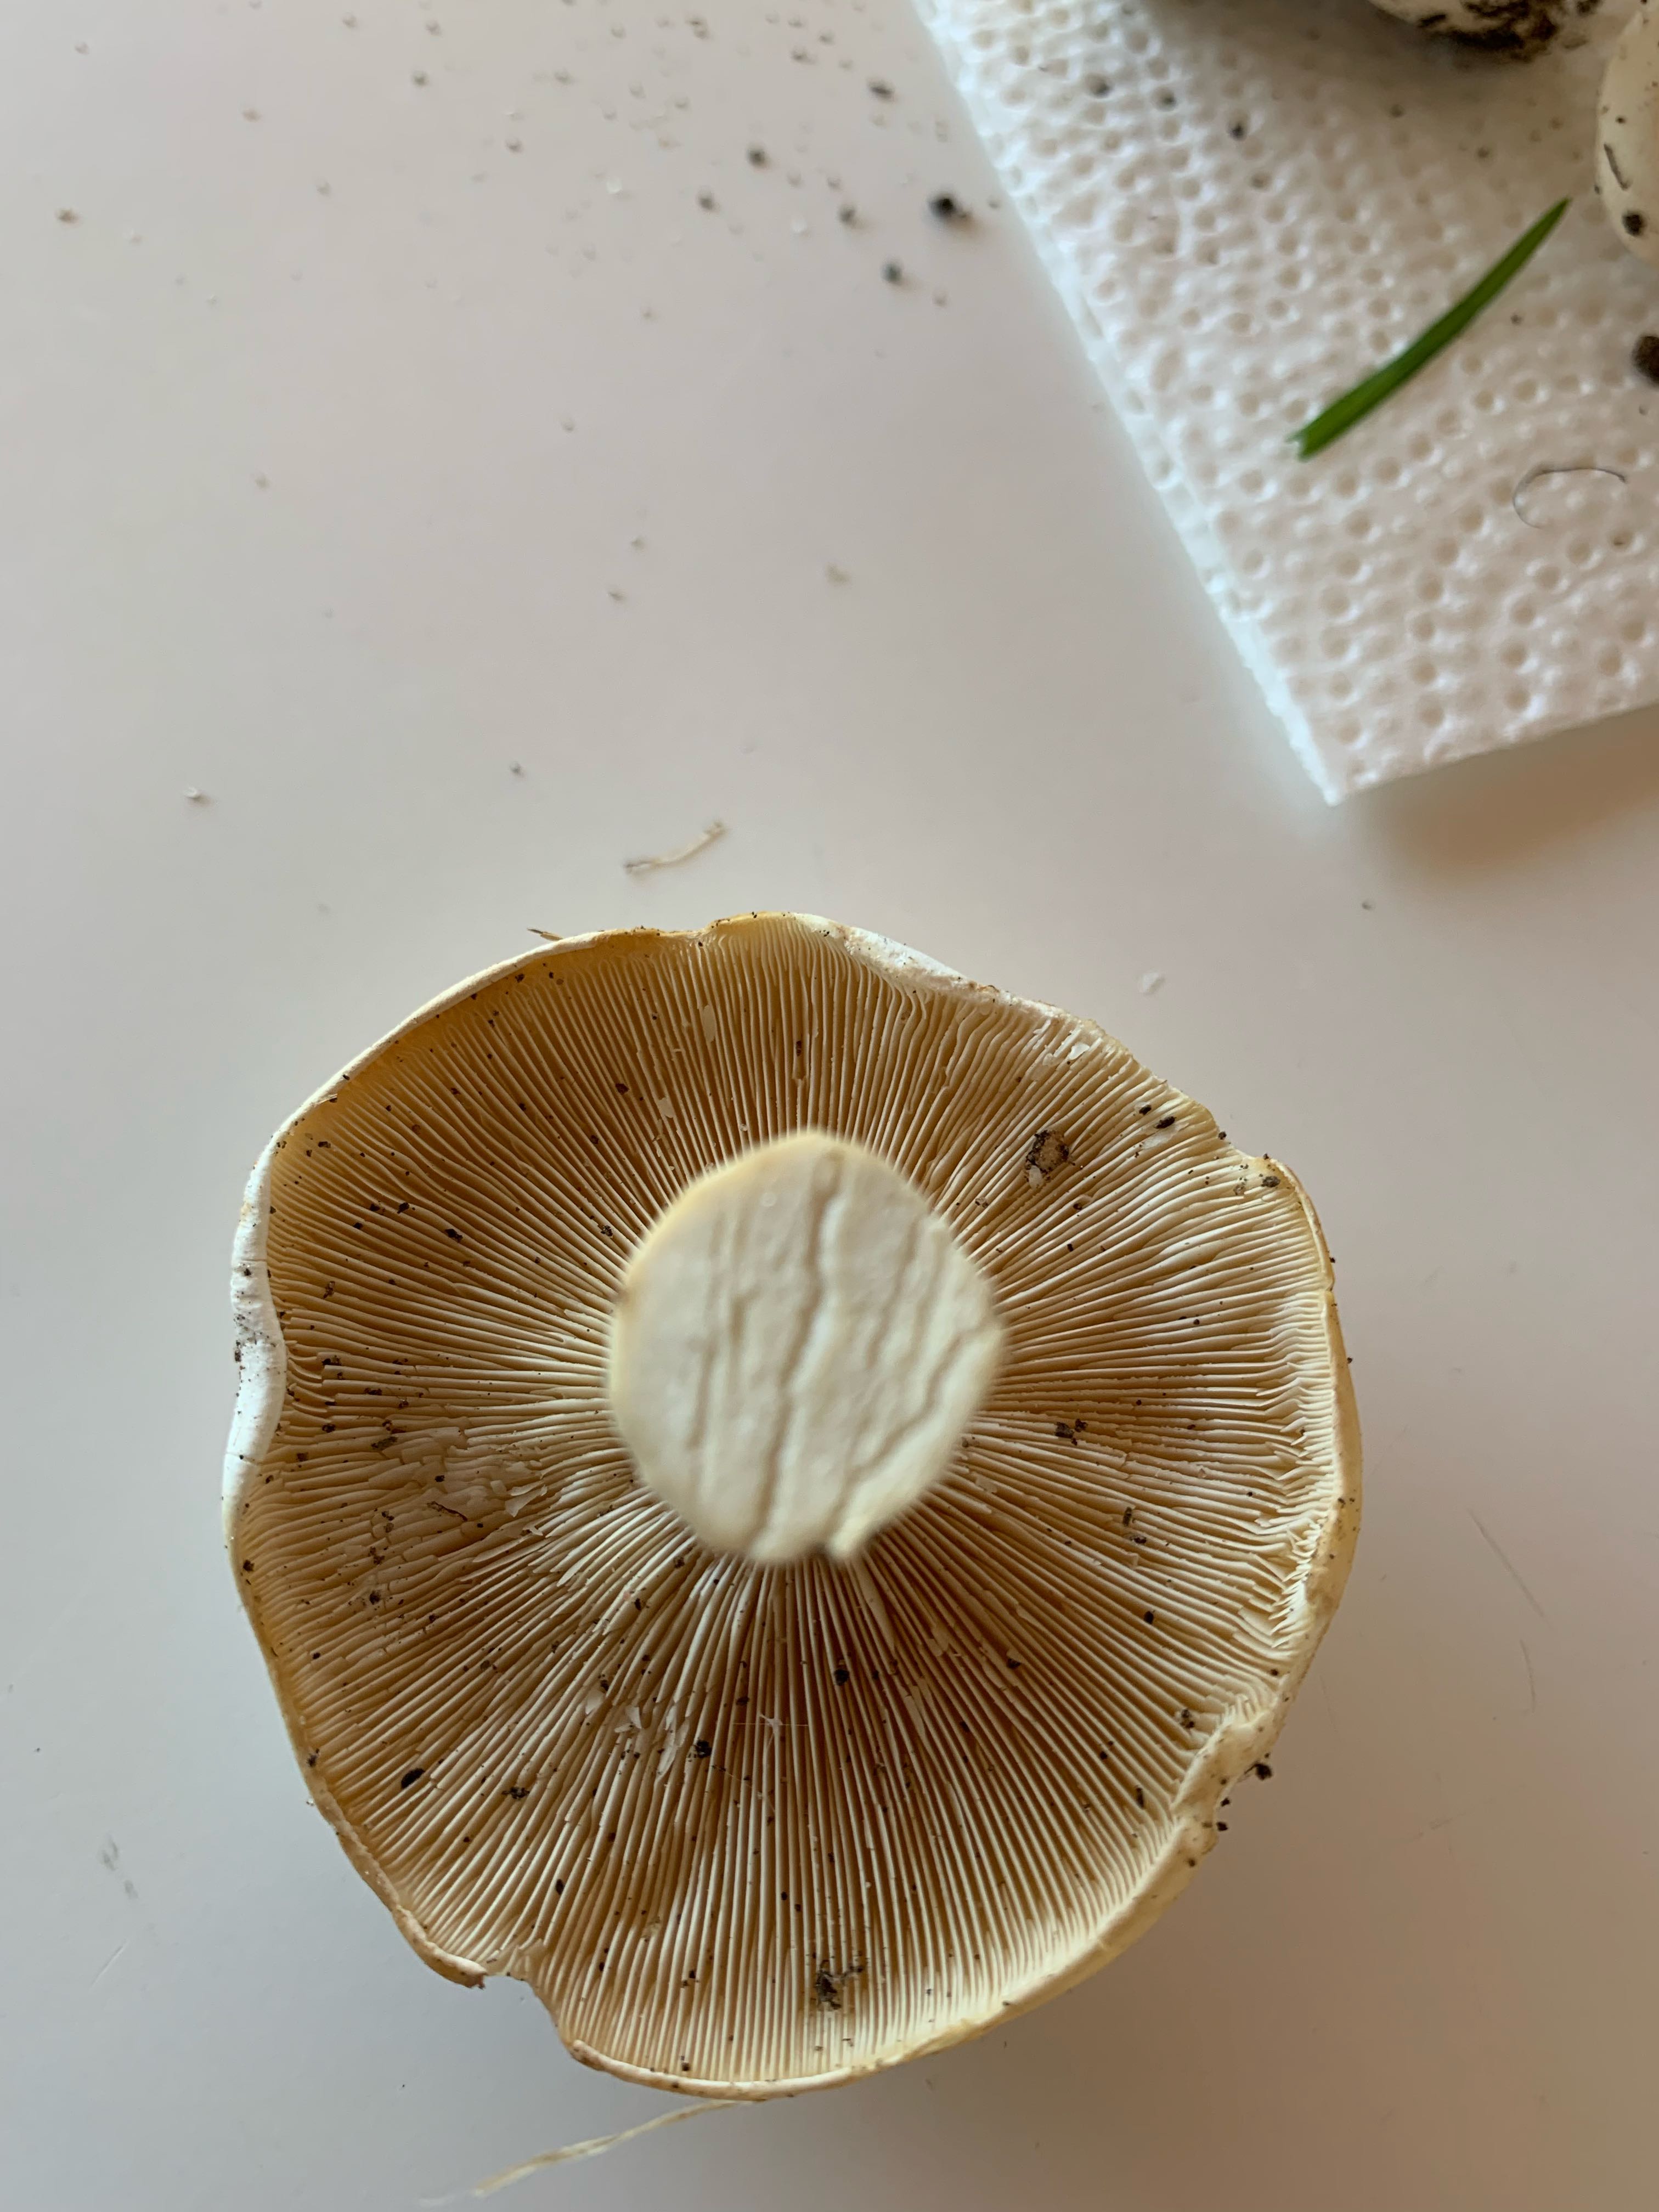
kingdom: Fungi
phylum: Basidiomycota
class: Agaricomycetes
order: Agaricales
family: Lyophyllaceae
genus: Calocybe
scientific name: Calocybe gambosa
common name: vårmusseron
